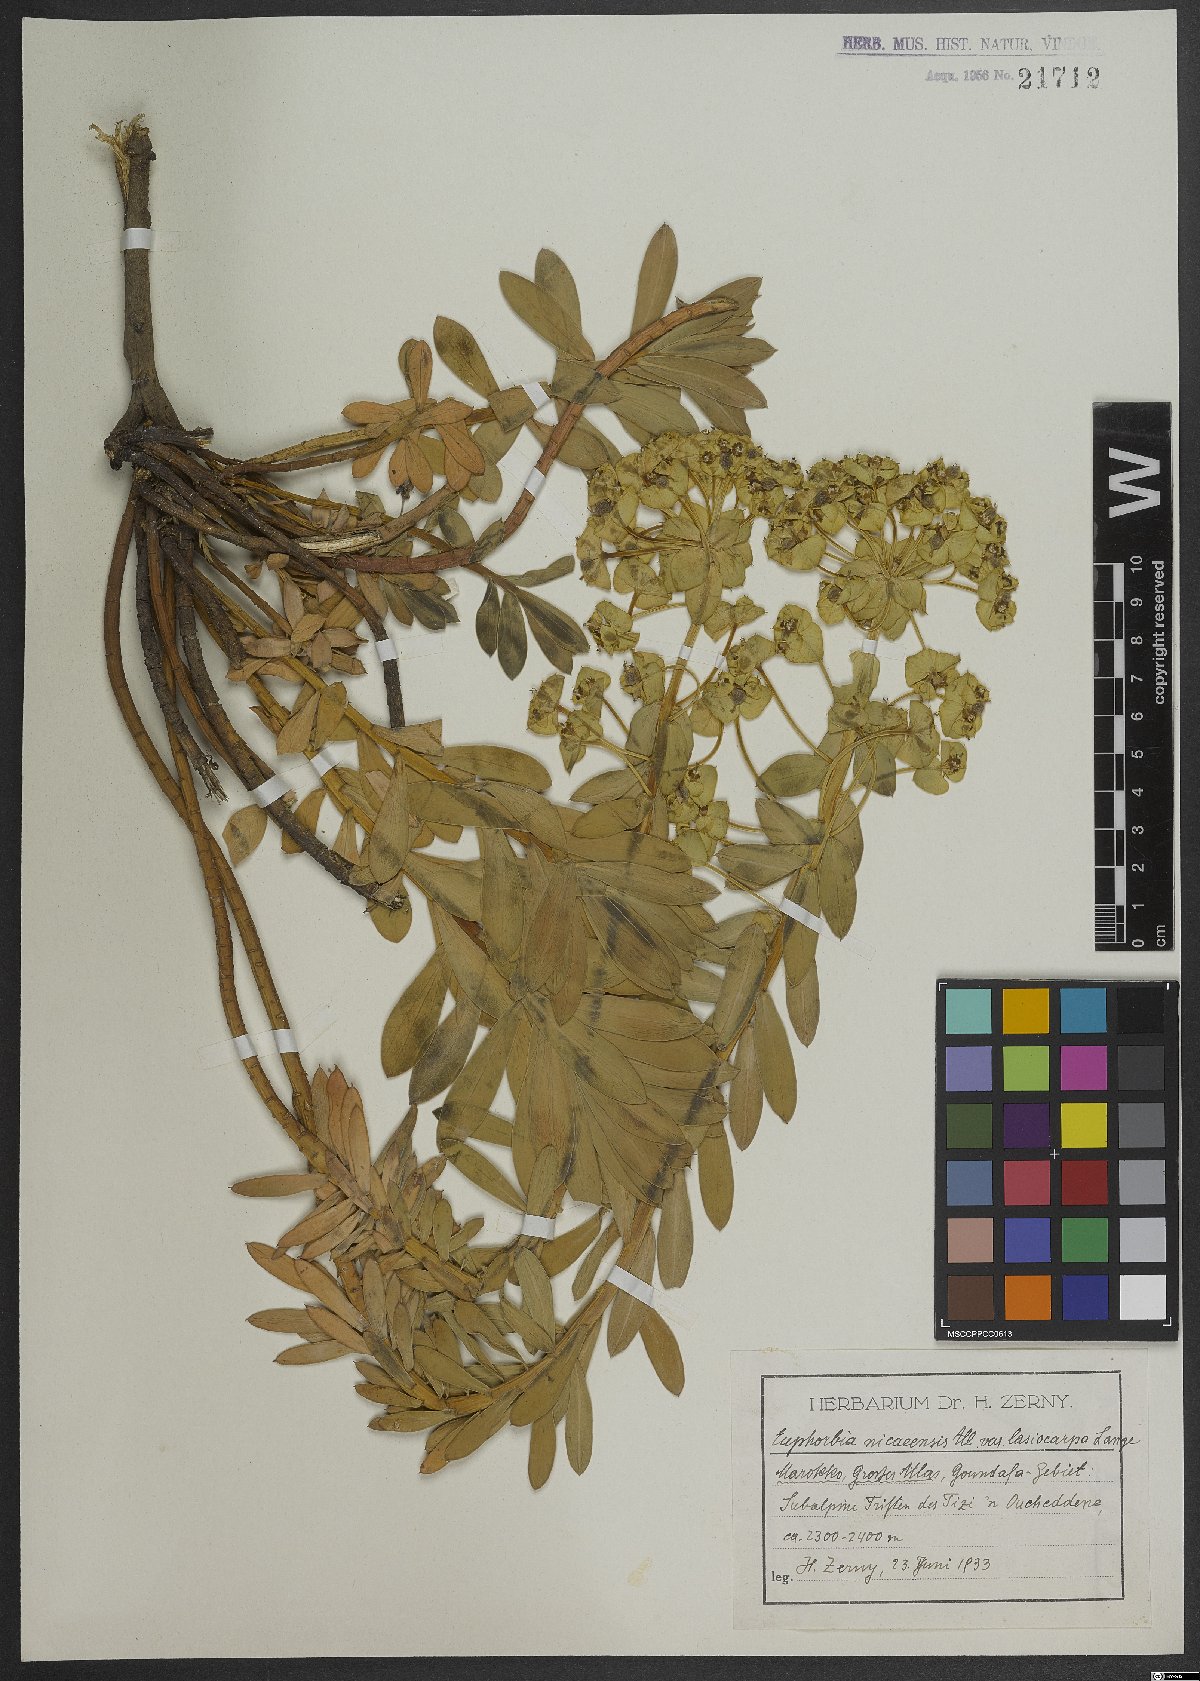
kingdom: Plantae
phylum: Tracheophyta
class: Magnoliopsida
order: Malpighiales
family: Euphorbiaceae
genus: Euphorbia
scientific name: Euphorbia nicaeensis
